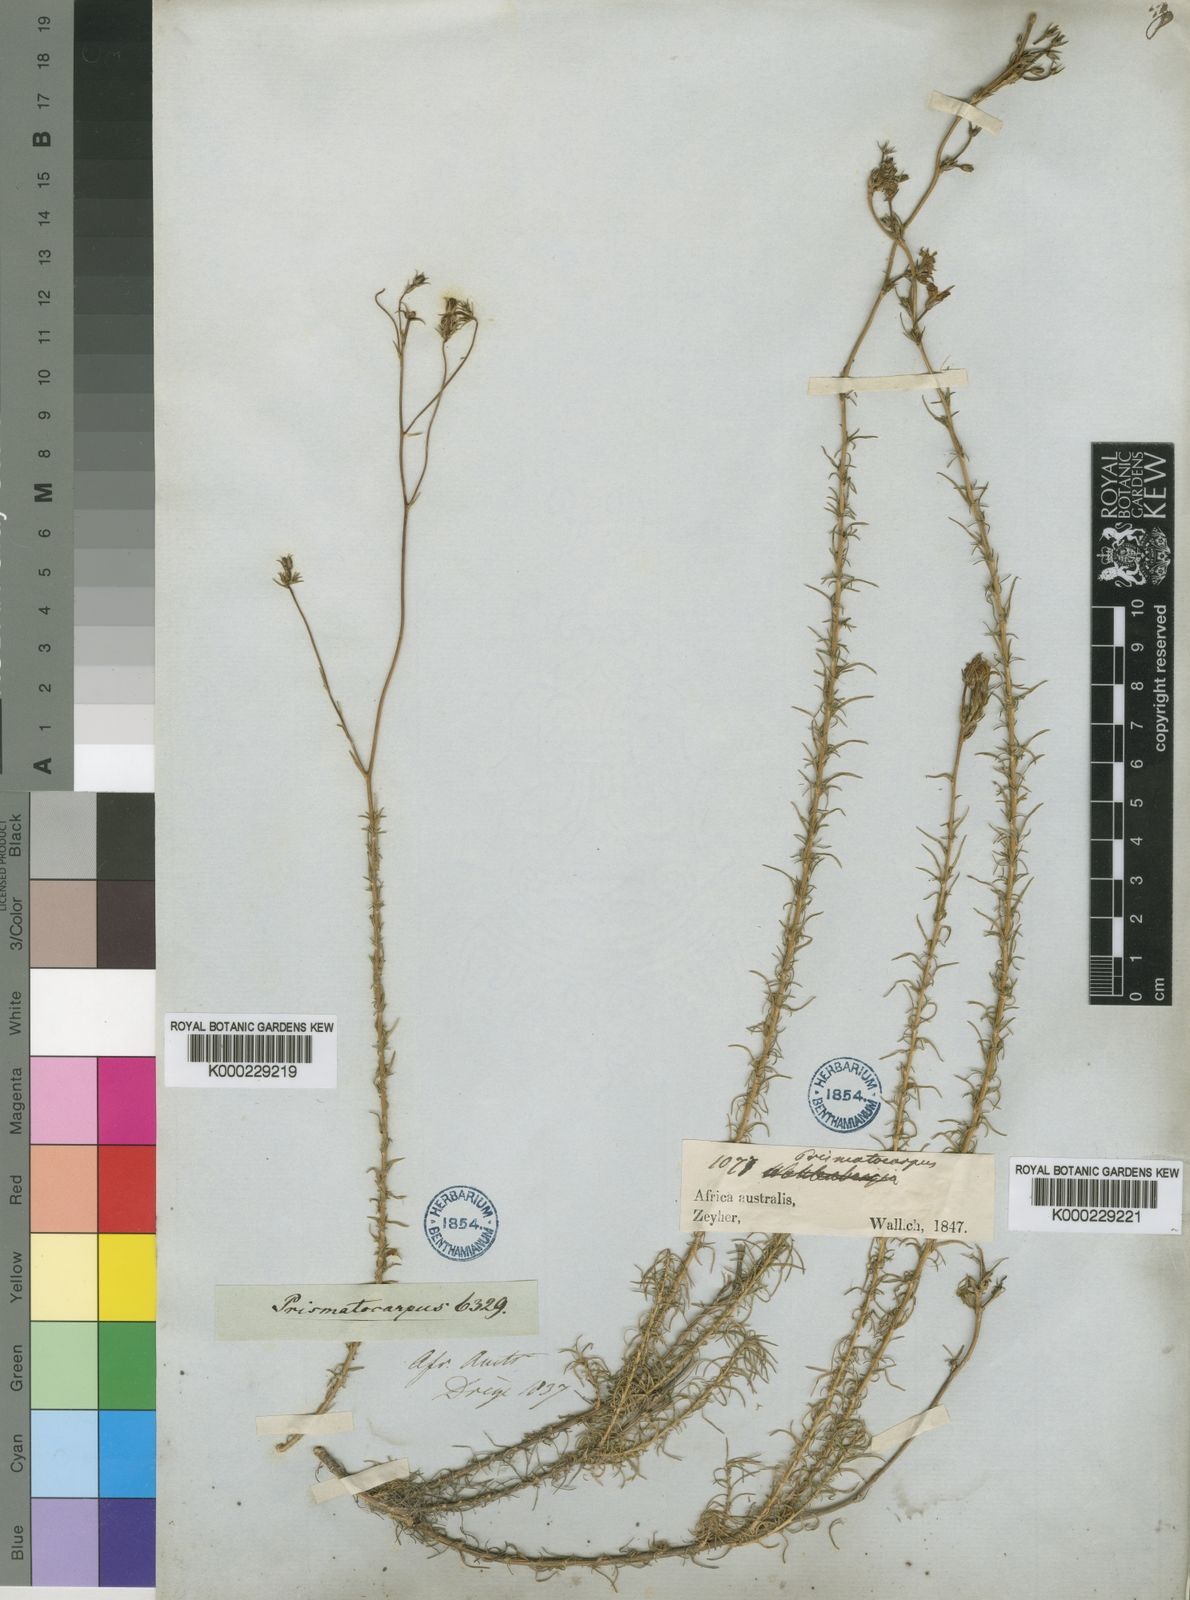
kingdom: Plantae
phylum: Tracheophyta
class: Magnoliopsida
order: Asterales
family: Campanulaceae
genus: Prismatocarpus
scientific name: Prismatocarpus pedunculatus
